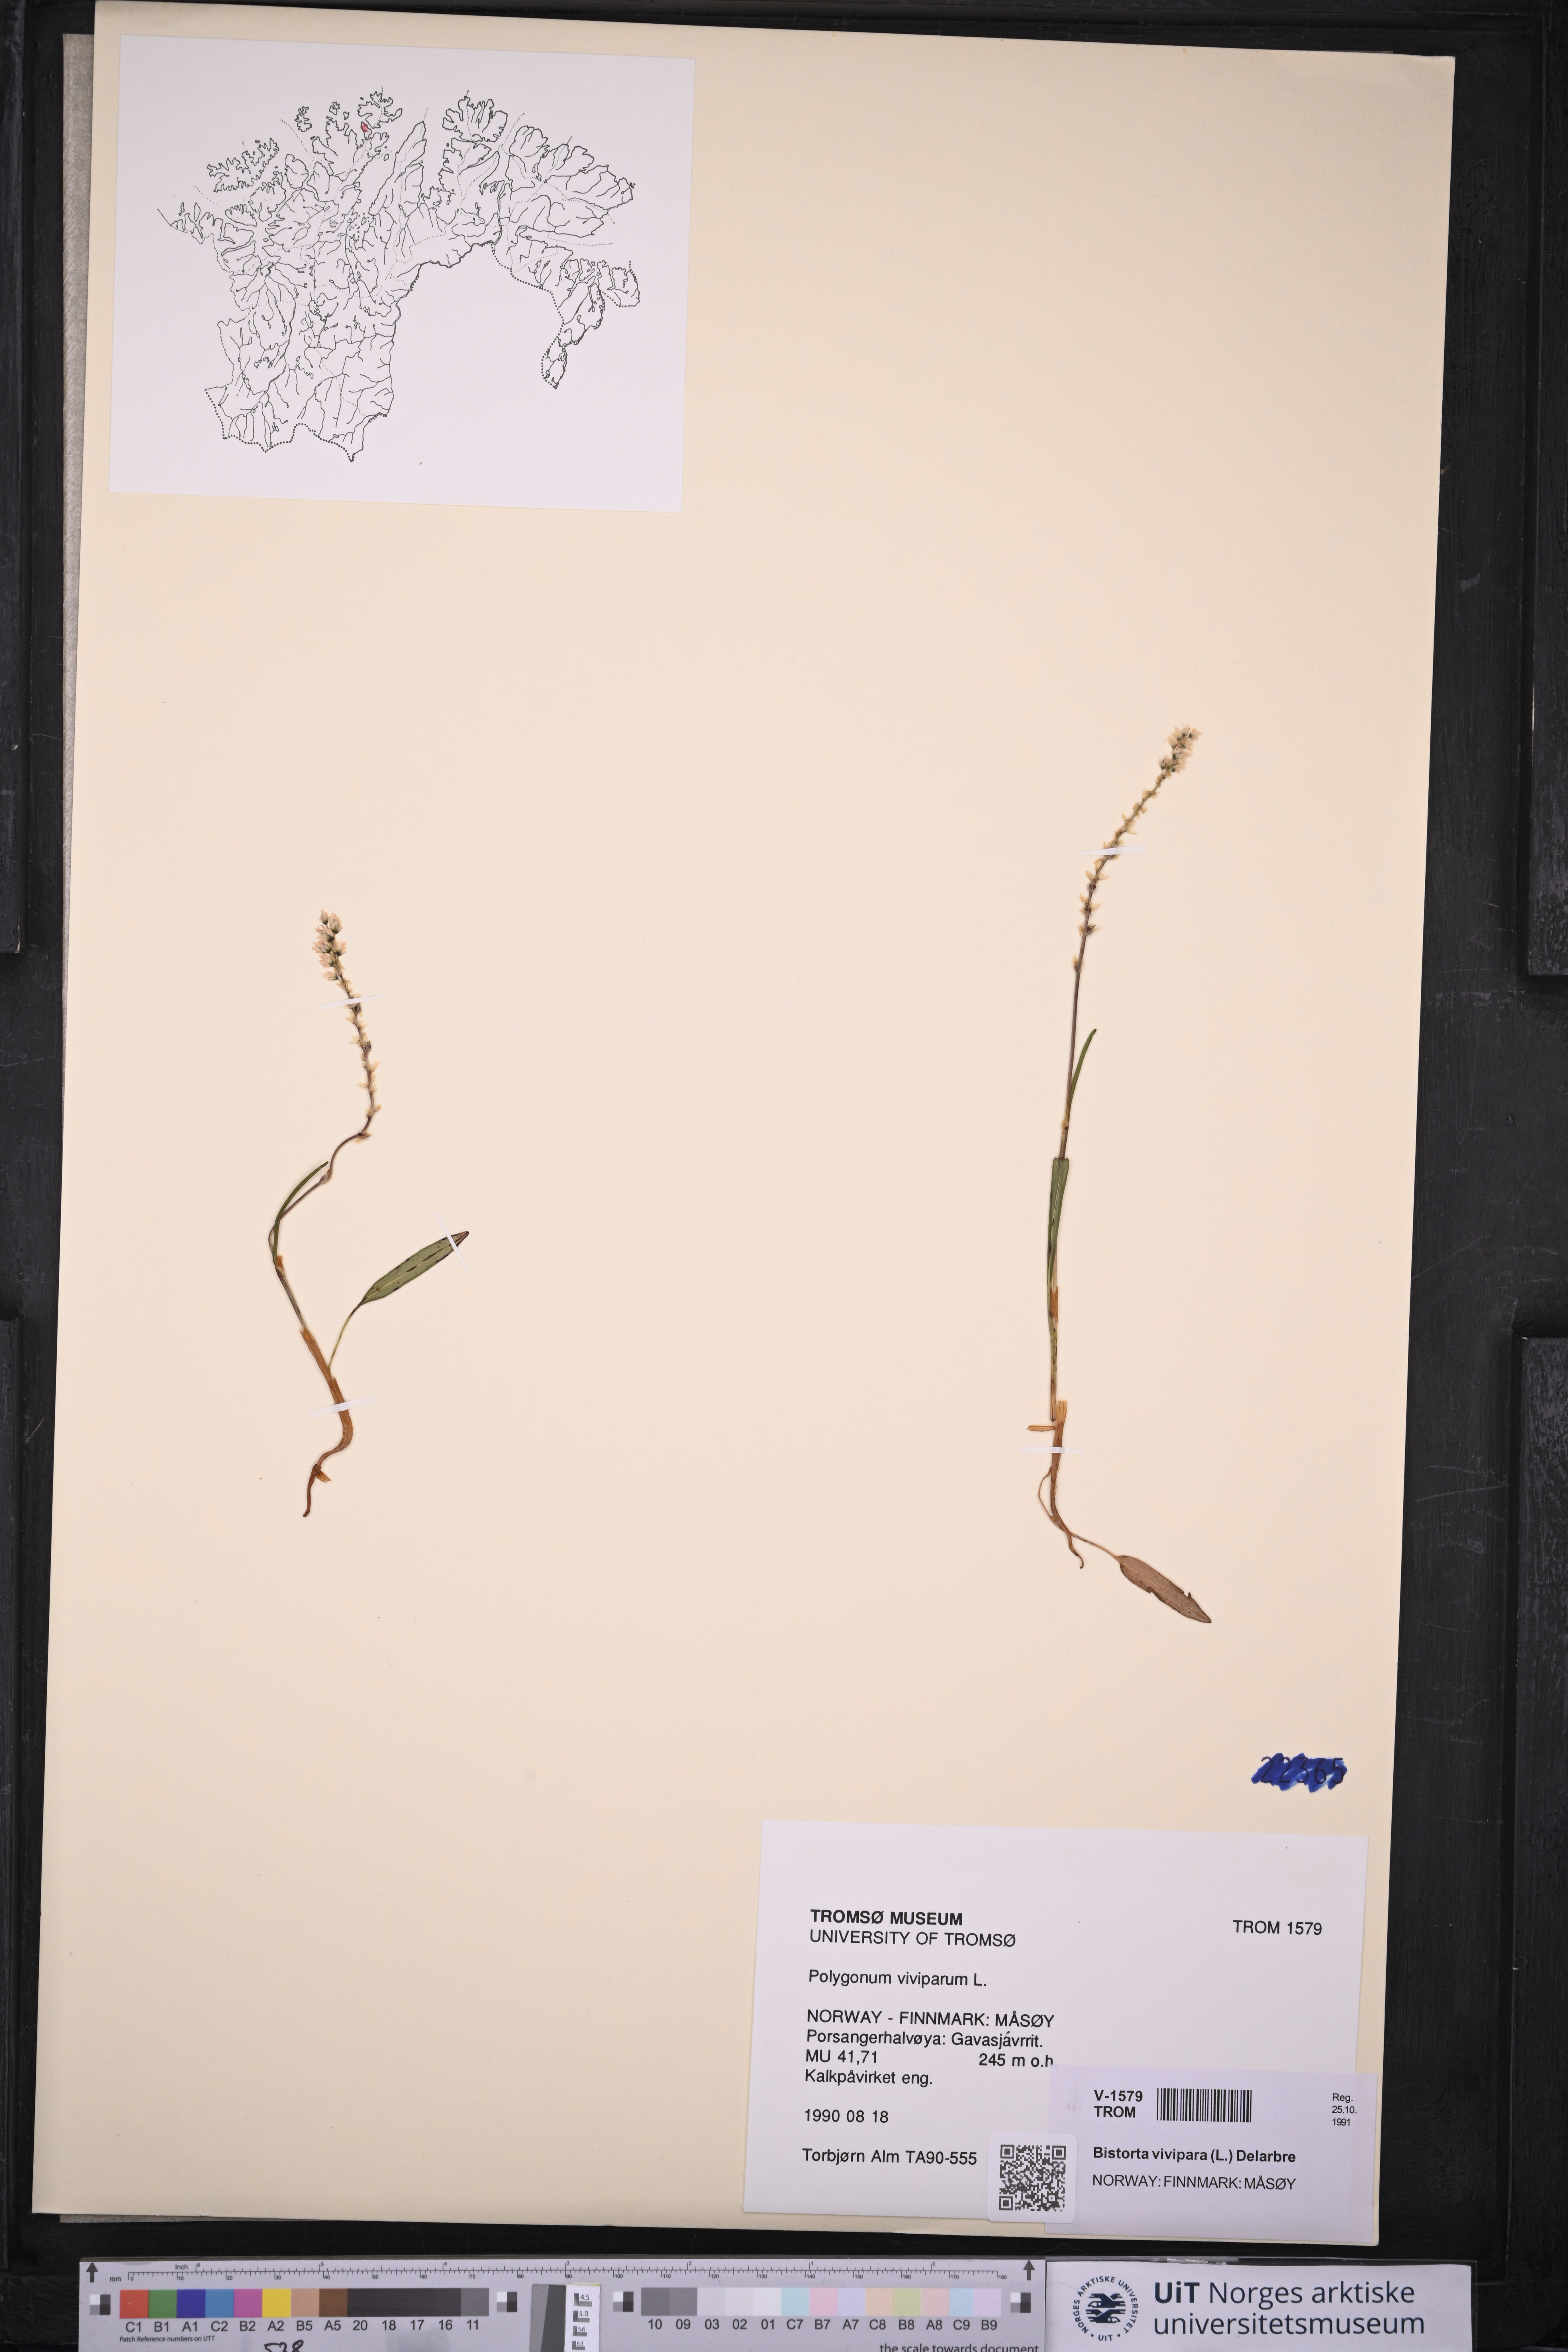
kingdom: Plantae
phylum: Tracheophyta
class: Magnoliopsida
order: Caryophyllales
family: Polygonaceae
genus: Bistorta
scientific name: Bistorta vivipara
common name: Alpine bistort
